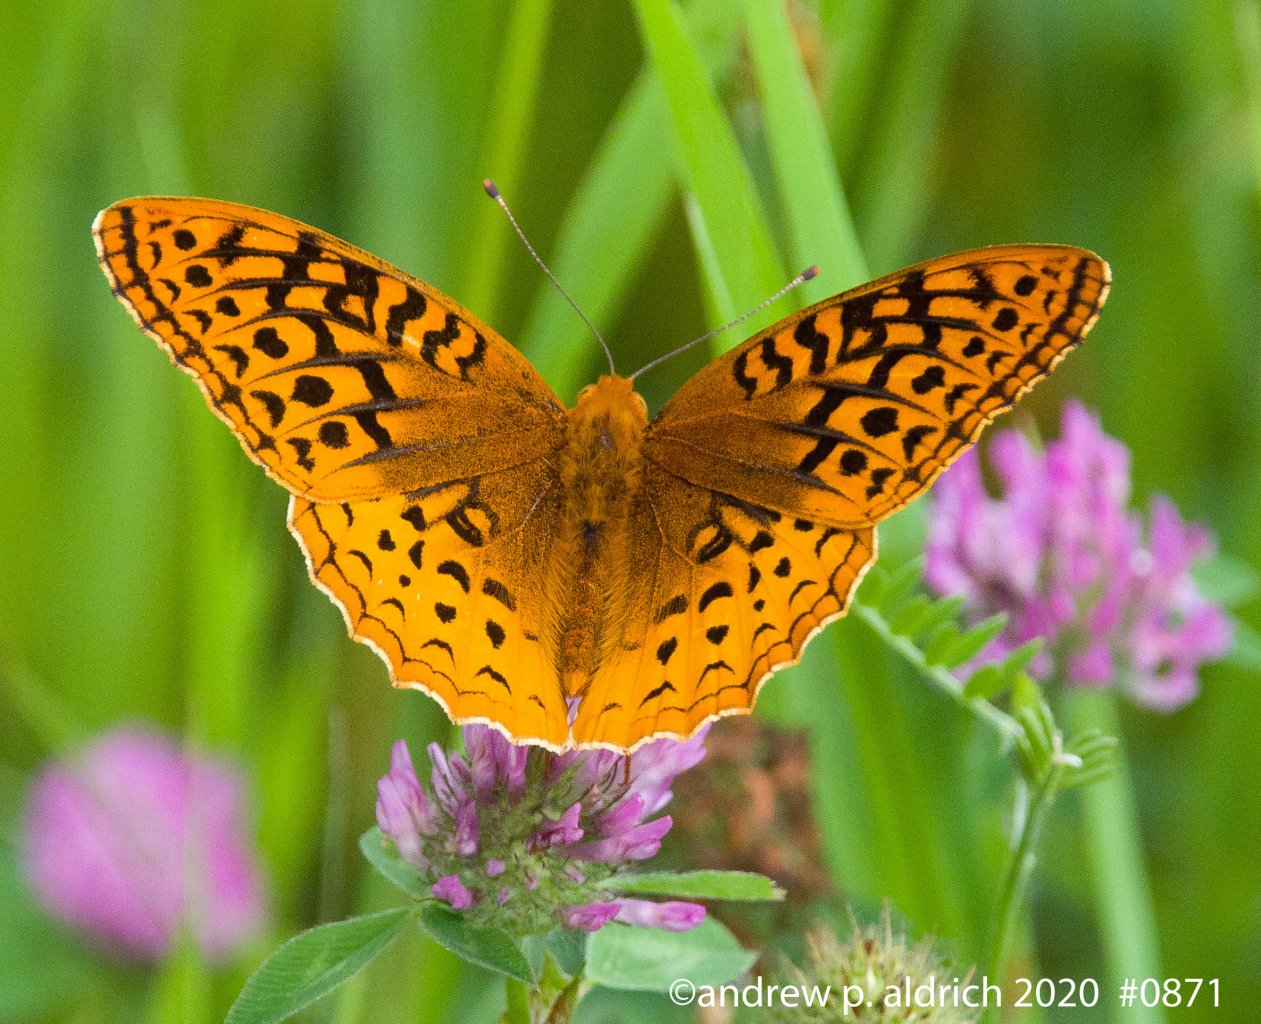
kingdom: Animalia
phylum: Arthropoda
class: Insecta
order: Lepidoptera
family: Nymphalidae
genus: Speyeria
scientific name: Speyeria cybele
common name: Great Spangled Fritillary
